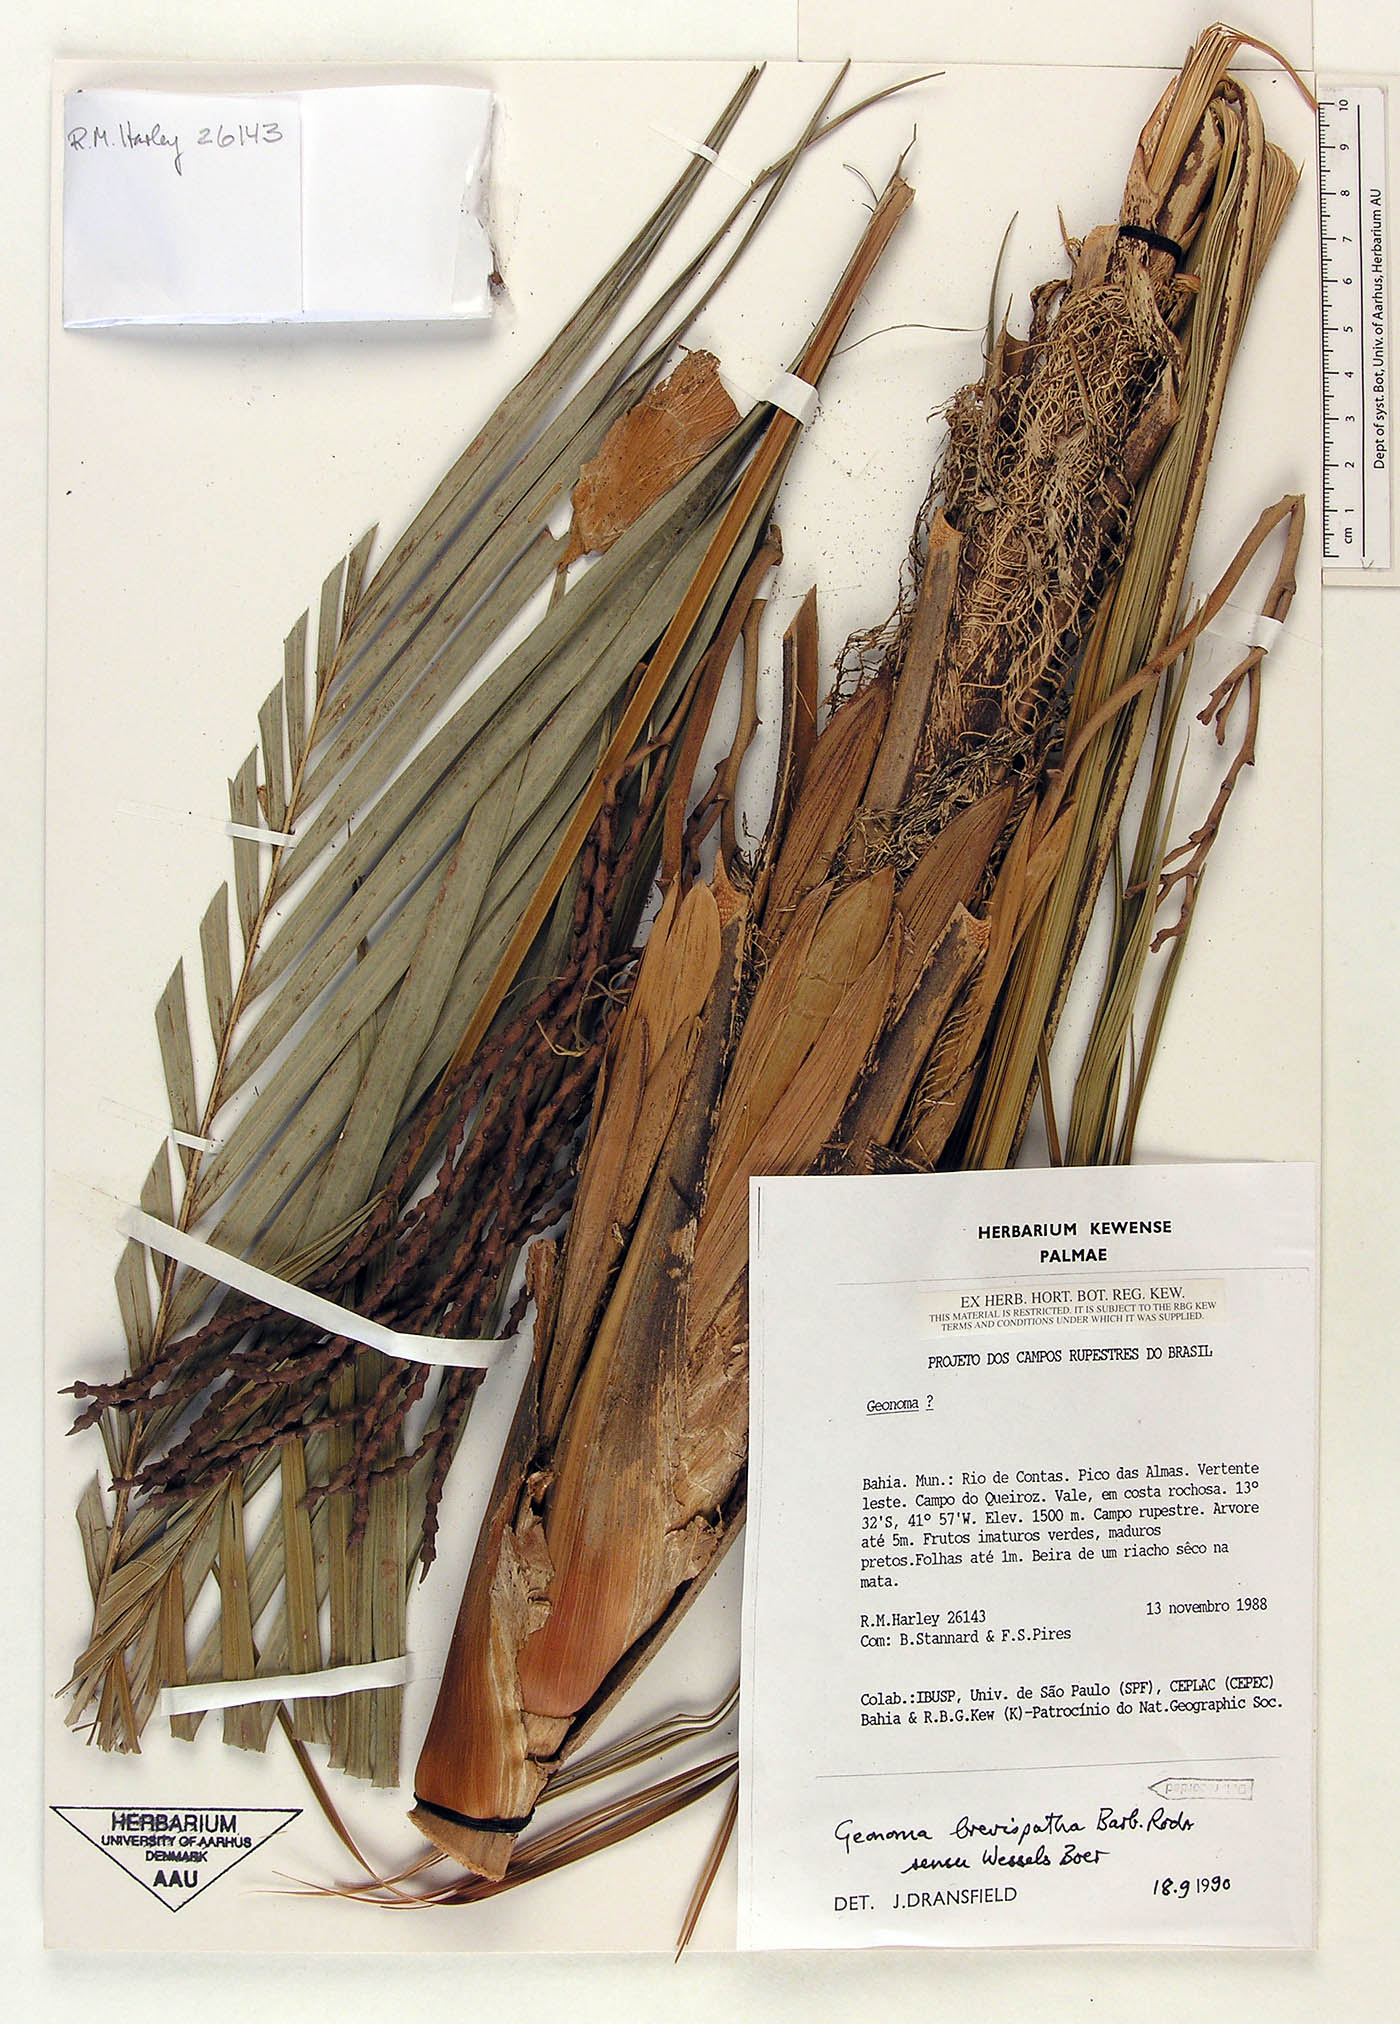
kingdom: Plantae
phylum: Tracheophyta
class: Liliopsida
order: Arecales
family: Arecaceae
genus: Geonoma
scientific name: Geonoma pohliana
